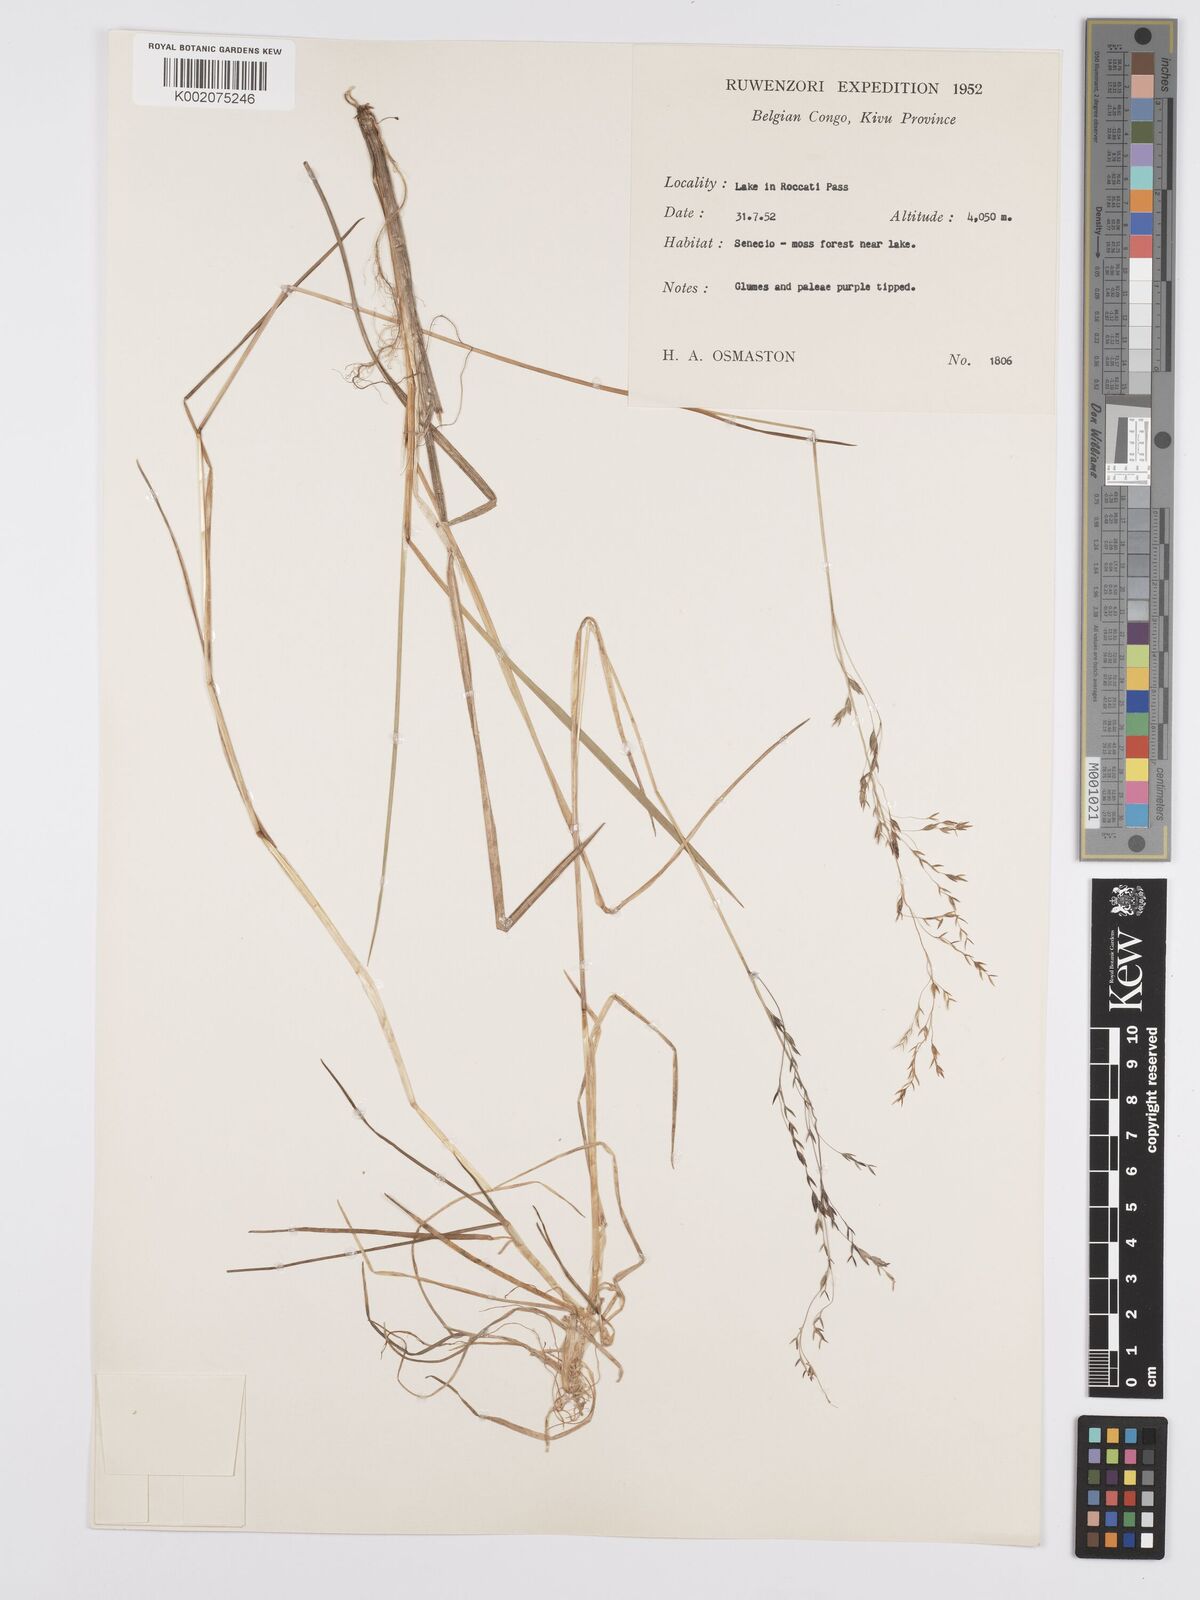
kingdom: Plantae
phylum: Tracheophyta
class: Liliopsida
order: Poales
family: Poaceae
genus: Poa
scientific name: Poa schimperiana
